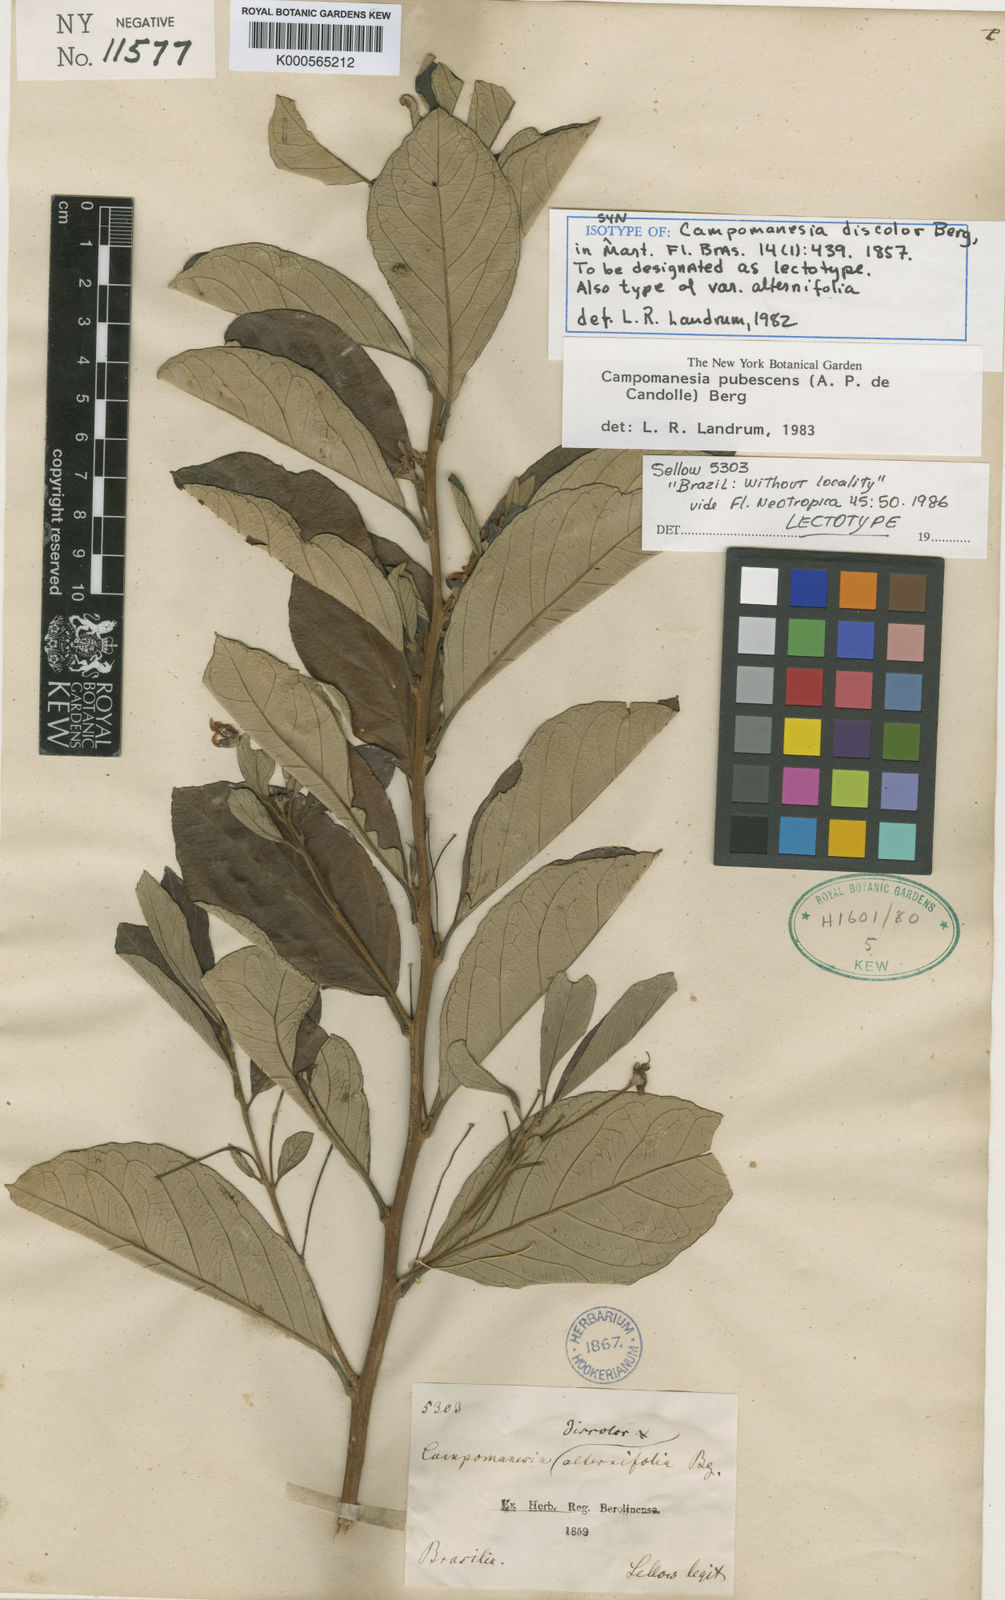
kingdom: Plantae
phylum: Tracheophyta
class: Magnoliopsida
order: Myrtales
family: Myrtaceae
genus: Campomanesia
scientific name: Campomanesia pubescens
